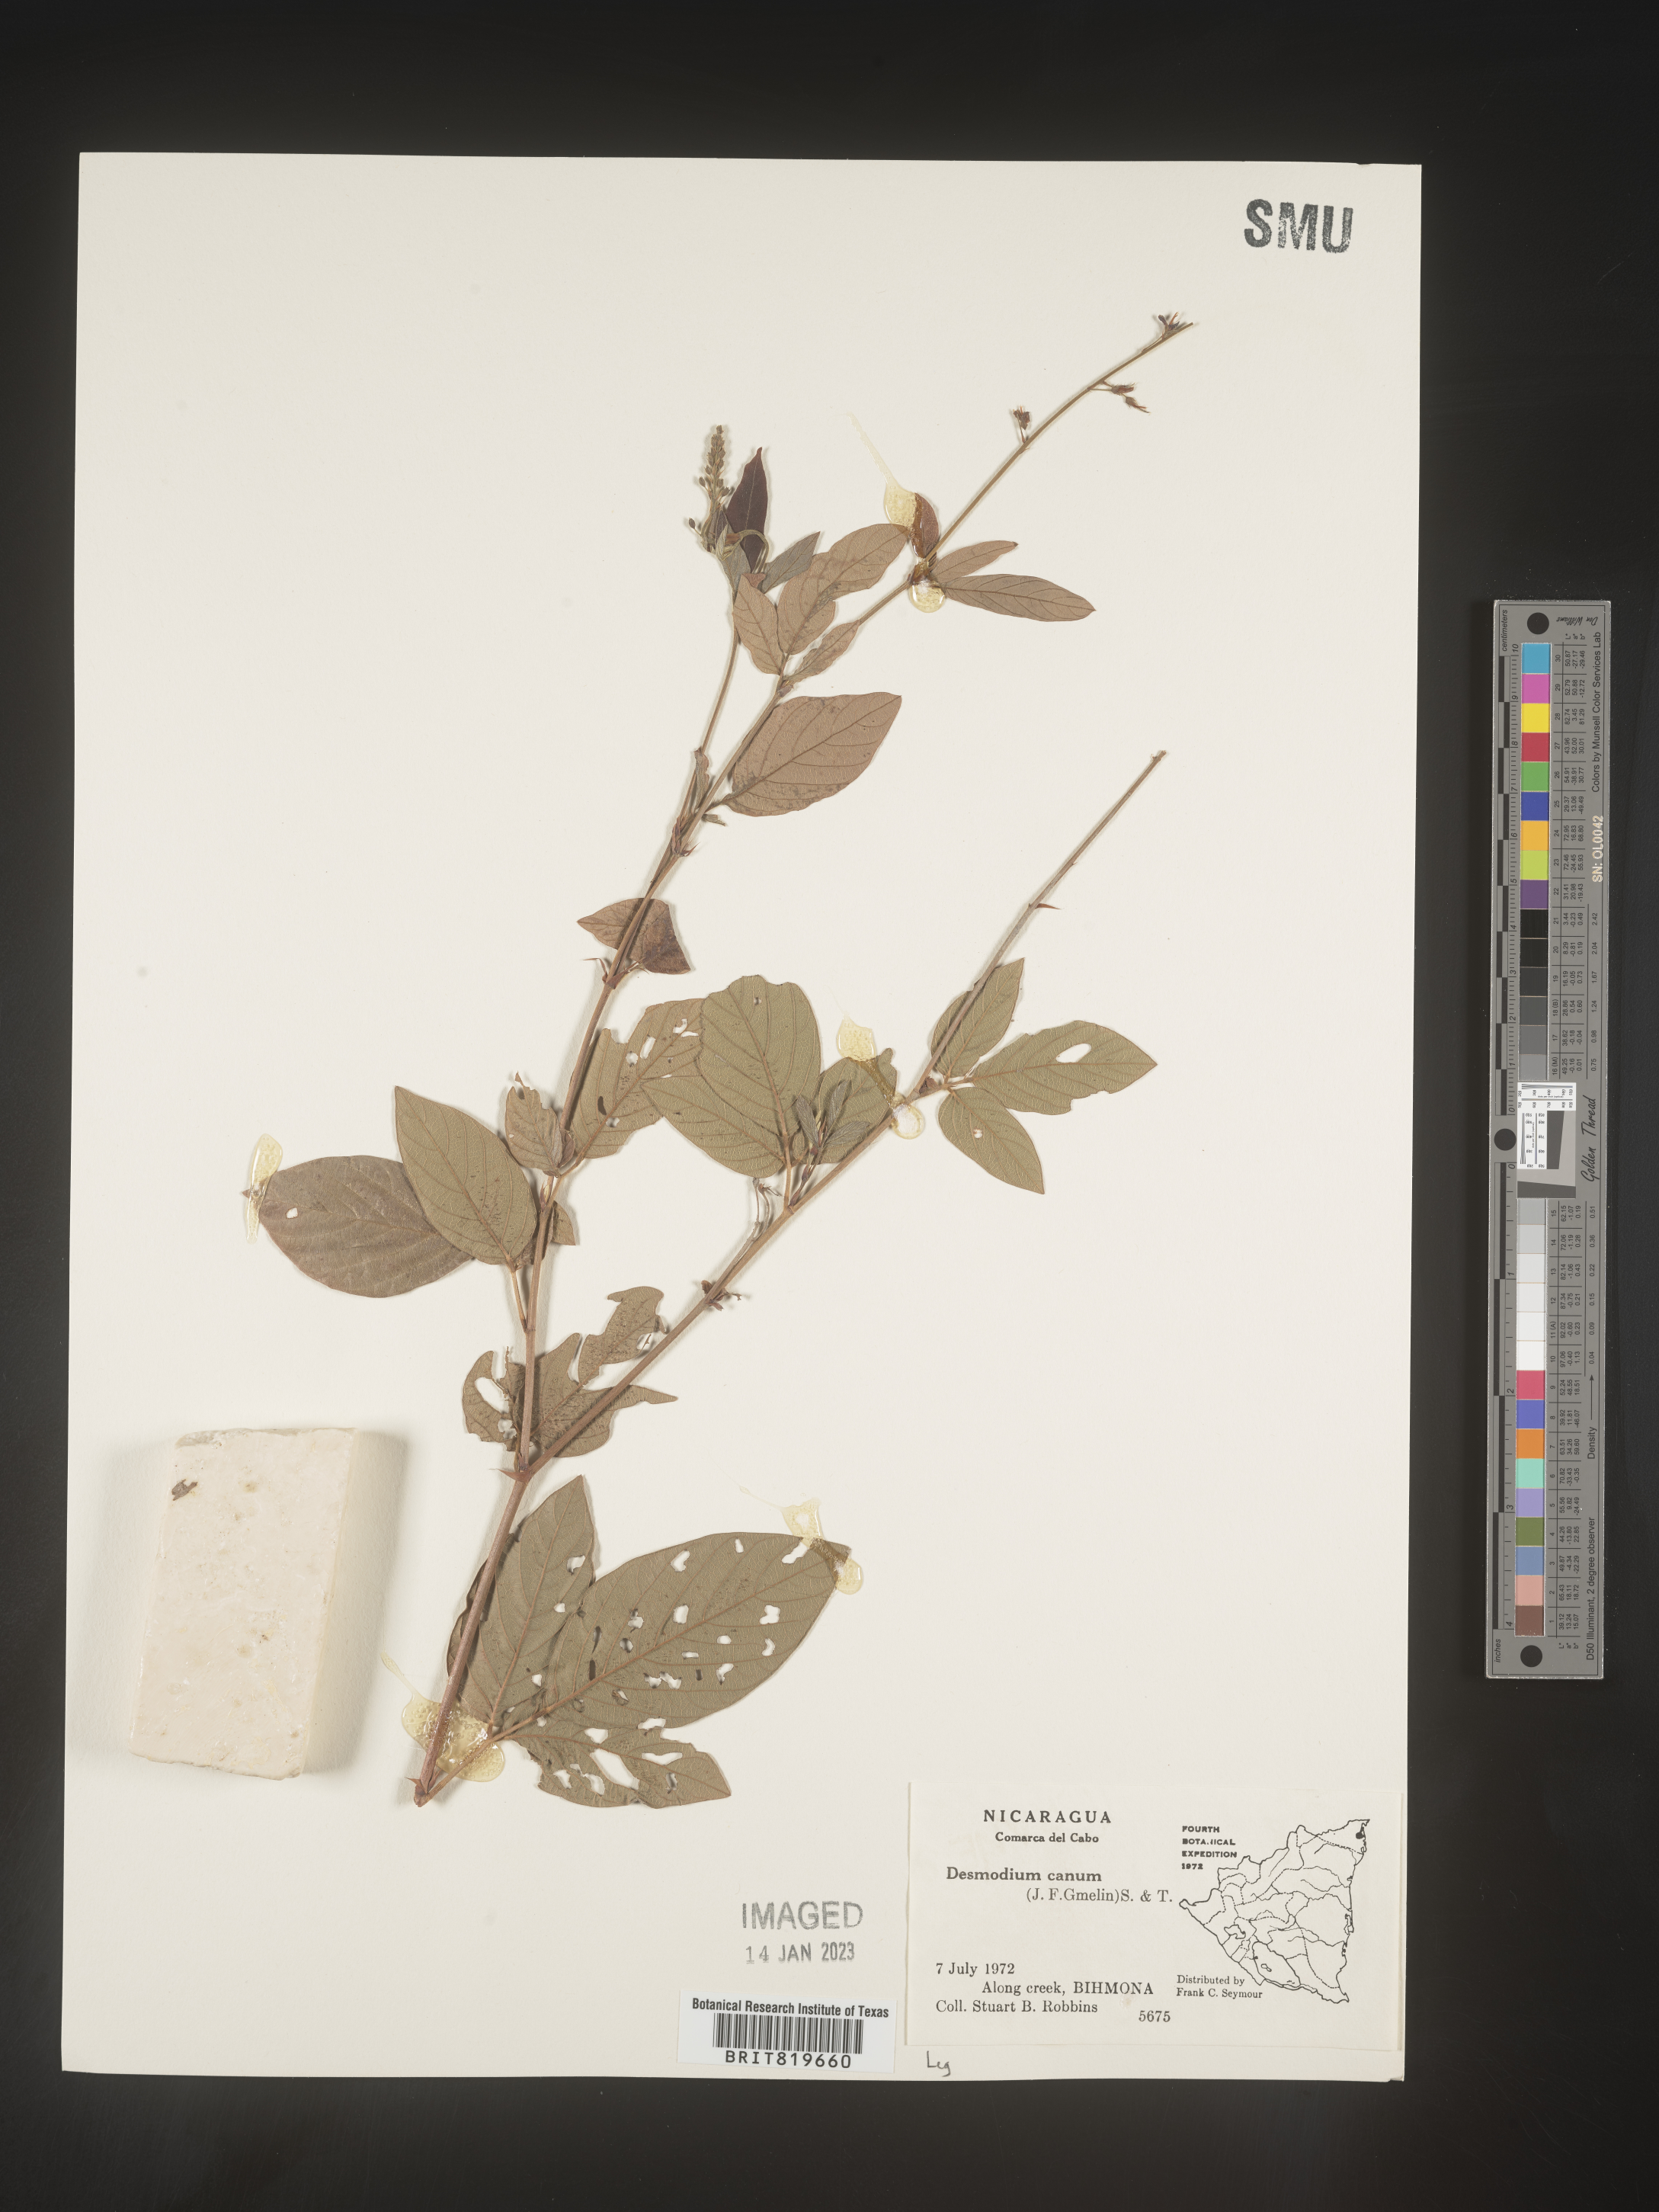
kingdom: Plantae
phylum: Tracheophyta
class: Magnoliopsida
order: Fabales
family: Fabaceae
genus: Desmodium
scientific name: Desmodium
